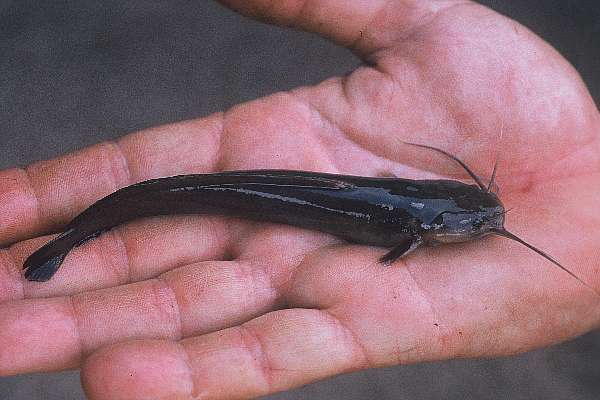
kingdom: Animalia
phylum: Chordata
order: Siluriformes
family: Clariidae
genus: Clarias
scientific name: Clarias
